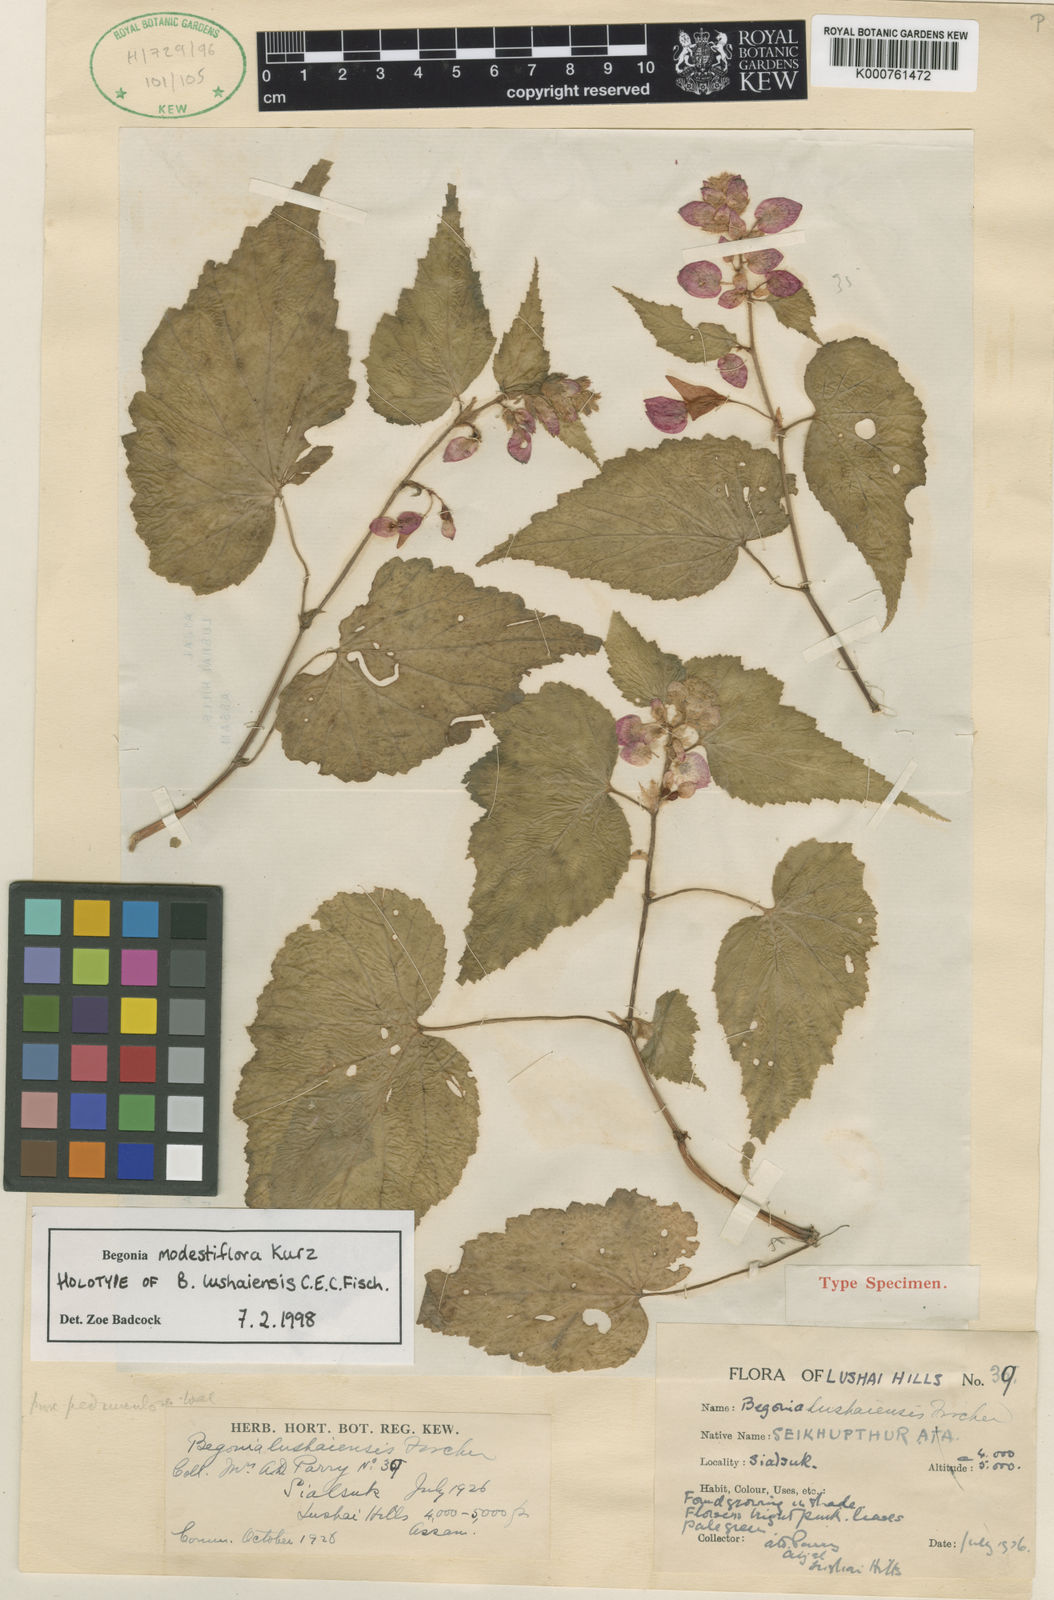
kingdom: Plantae
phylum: Tracheophyta
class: Magnoliopsida
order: Cucurbitales
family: Begoniaceae
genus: Begonia
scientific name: Begonia modestiflora
